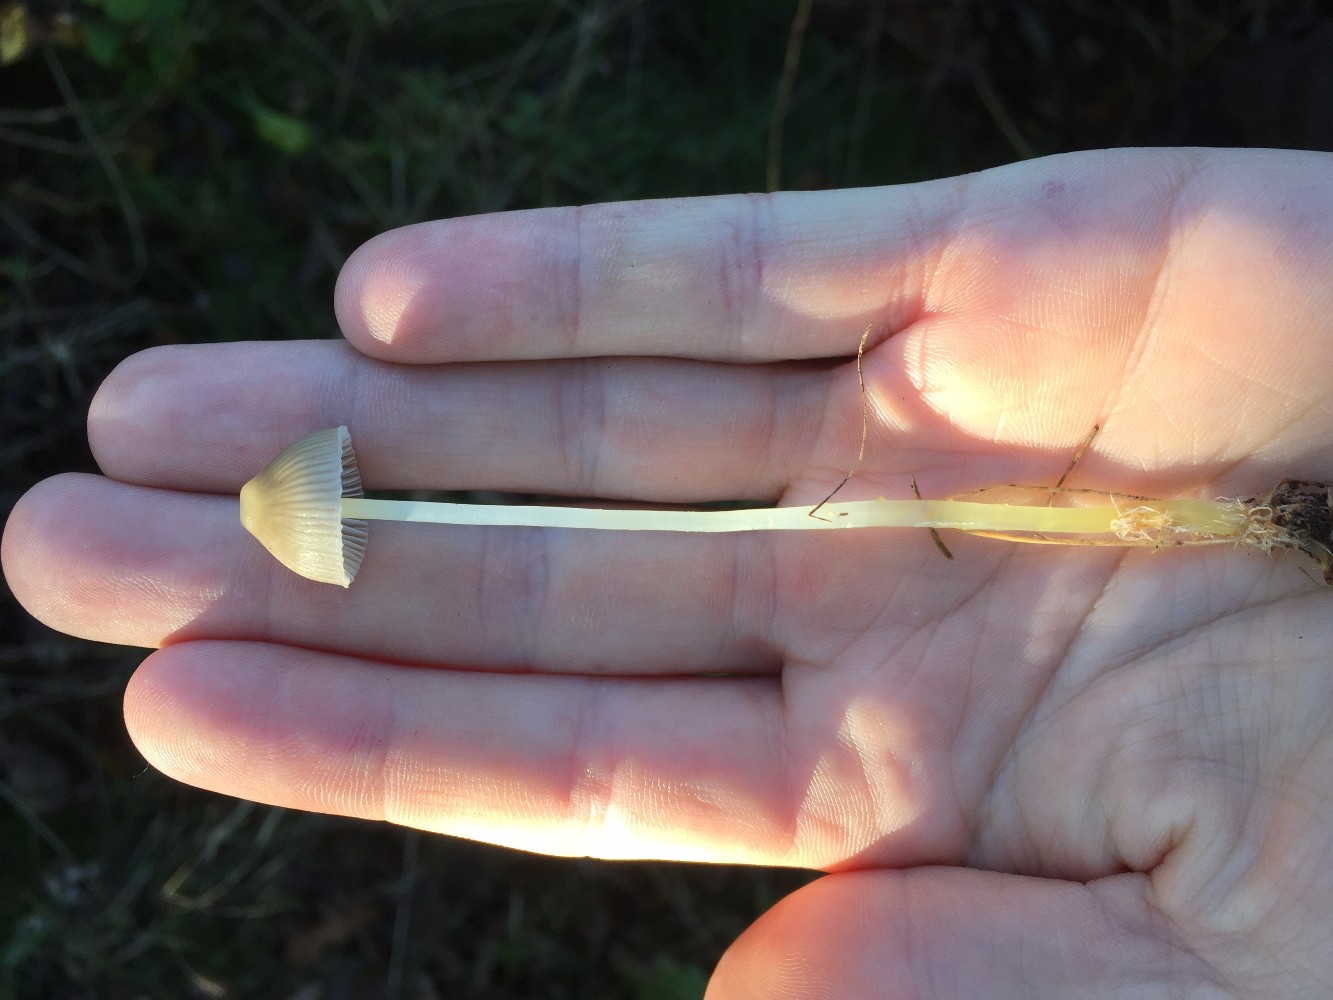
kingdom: Fungi
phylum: Basidiomycota
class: Agaricomycetes
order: Agaricales
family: Mycenaceae
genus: Mycena
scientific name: Mycena epipterygia
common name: gulstokket huesvamp
